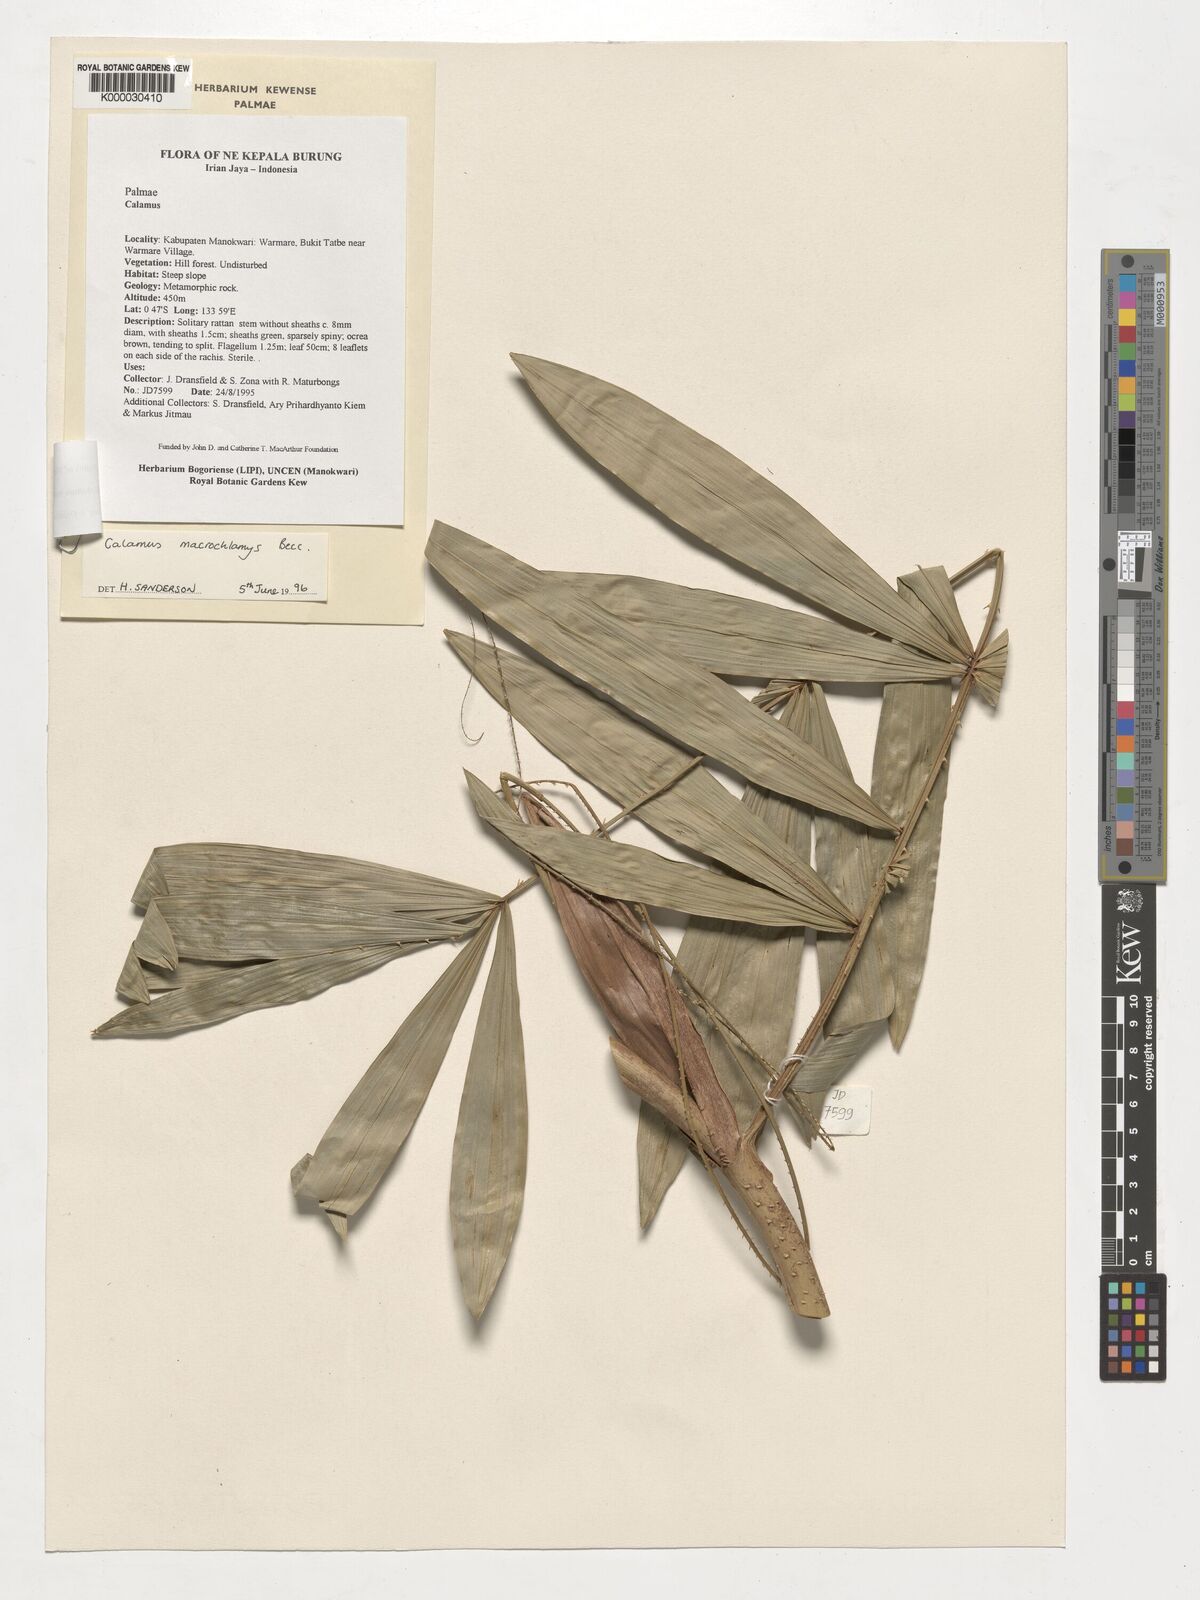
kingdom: Plantae
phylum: Tracheophyta
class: Liliopsida
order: Arecales
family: Arecaceae
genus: Calamus
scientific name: Calamus macrochlamys
